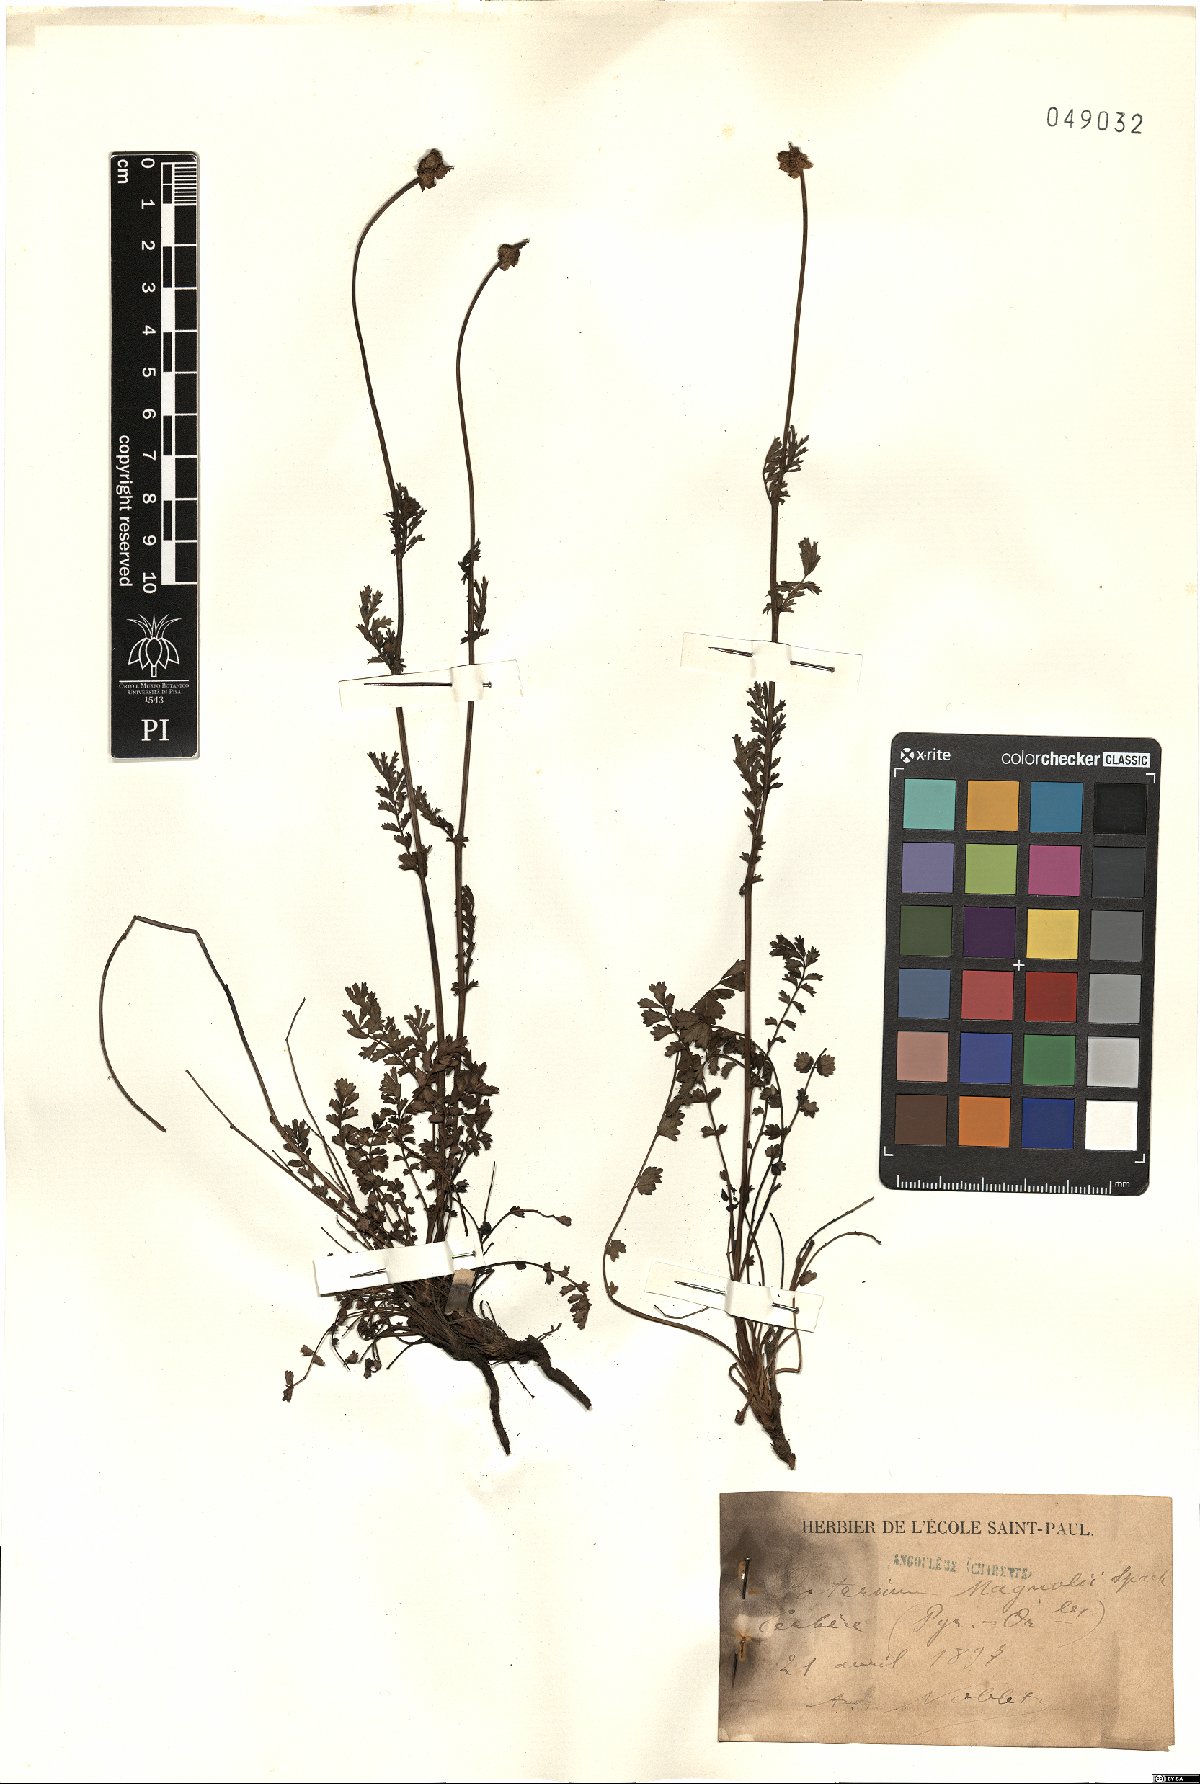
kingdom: Plantae
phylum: Tracheophyta
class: Magnoliopsida
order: Rosales
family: Rosaceae
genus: Poterium
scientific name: Poterium verrucosum
